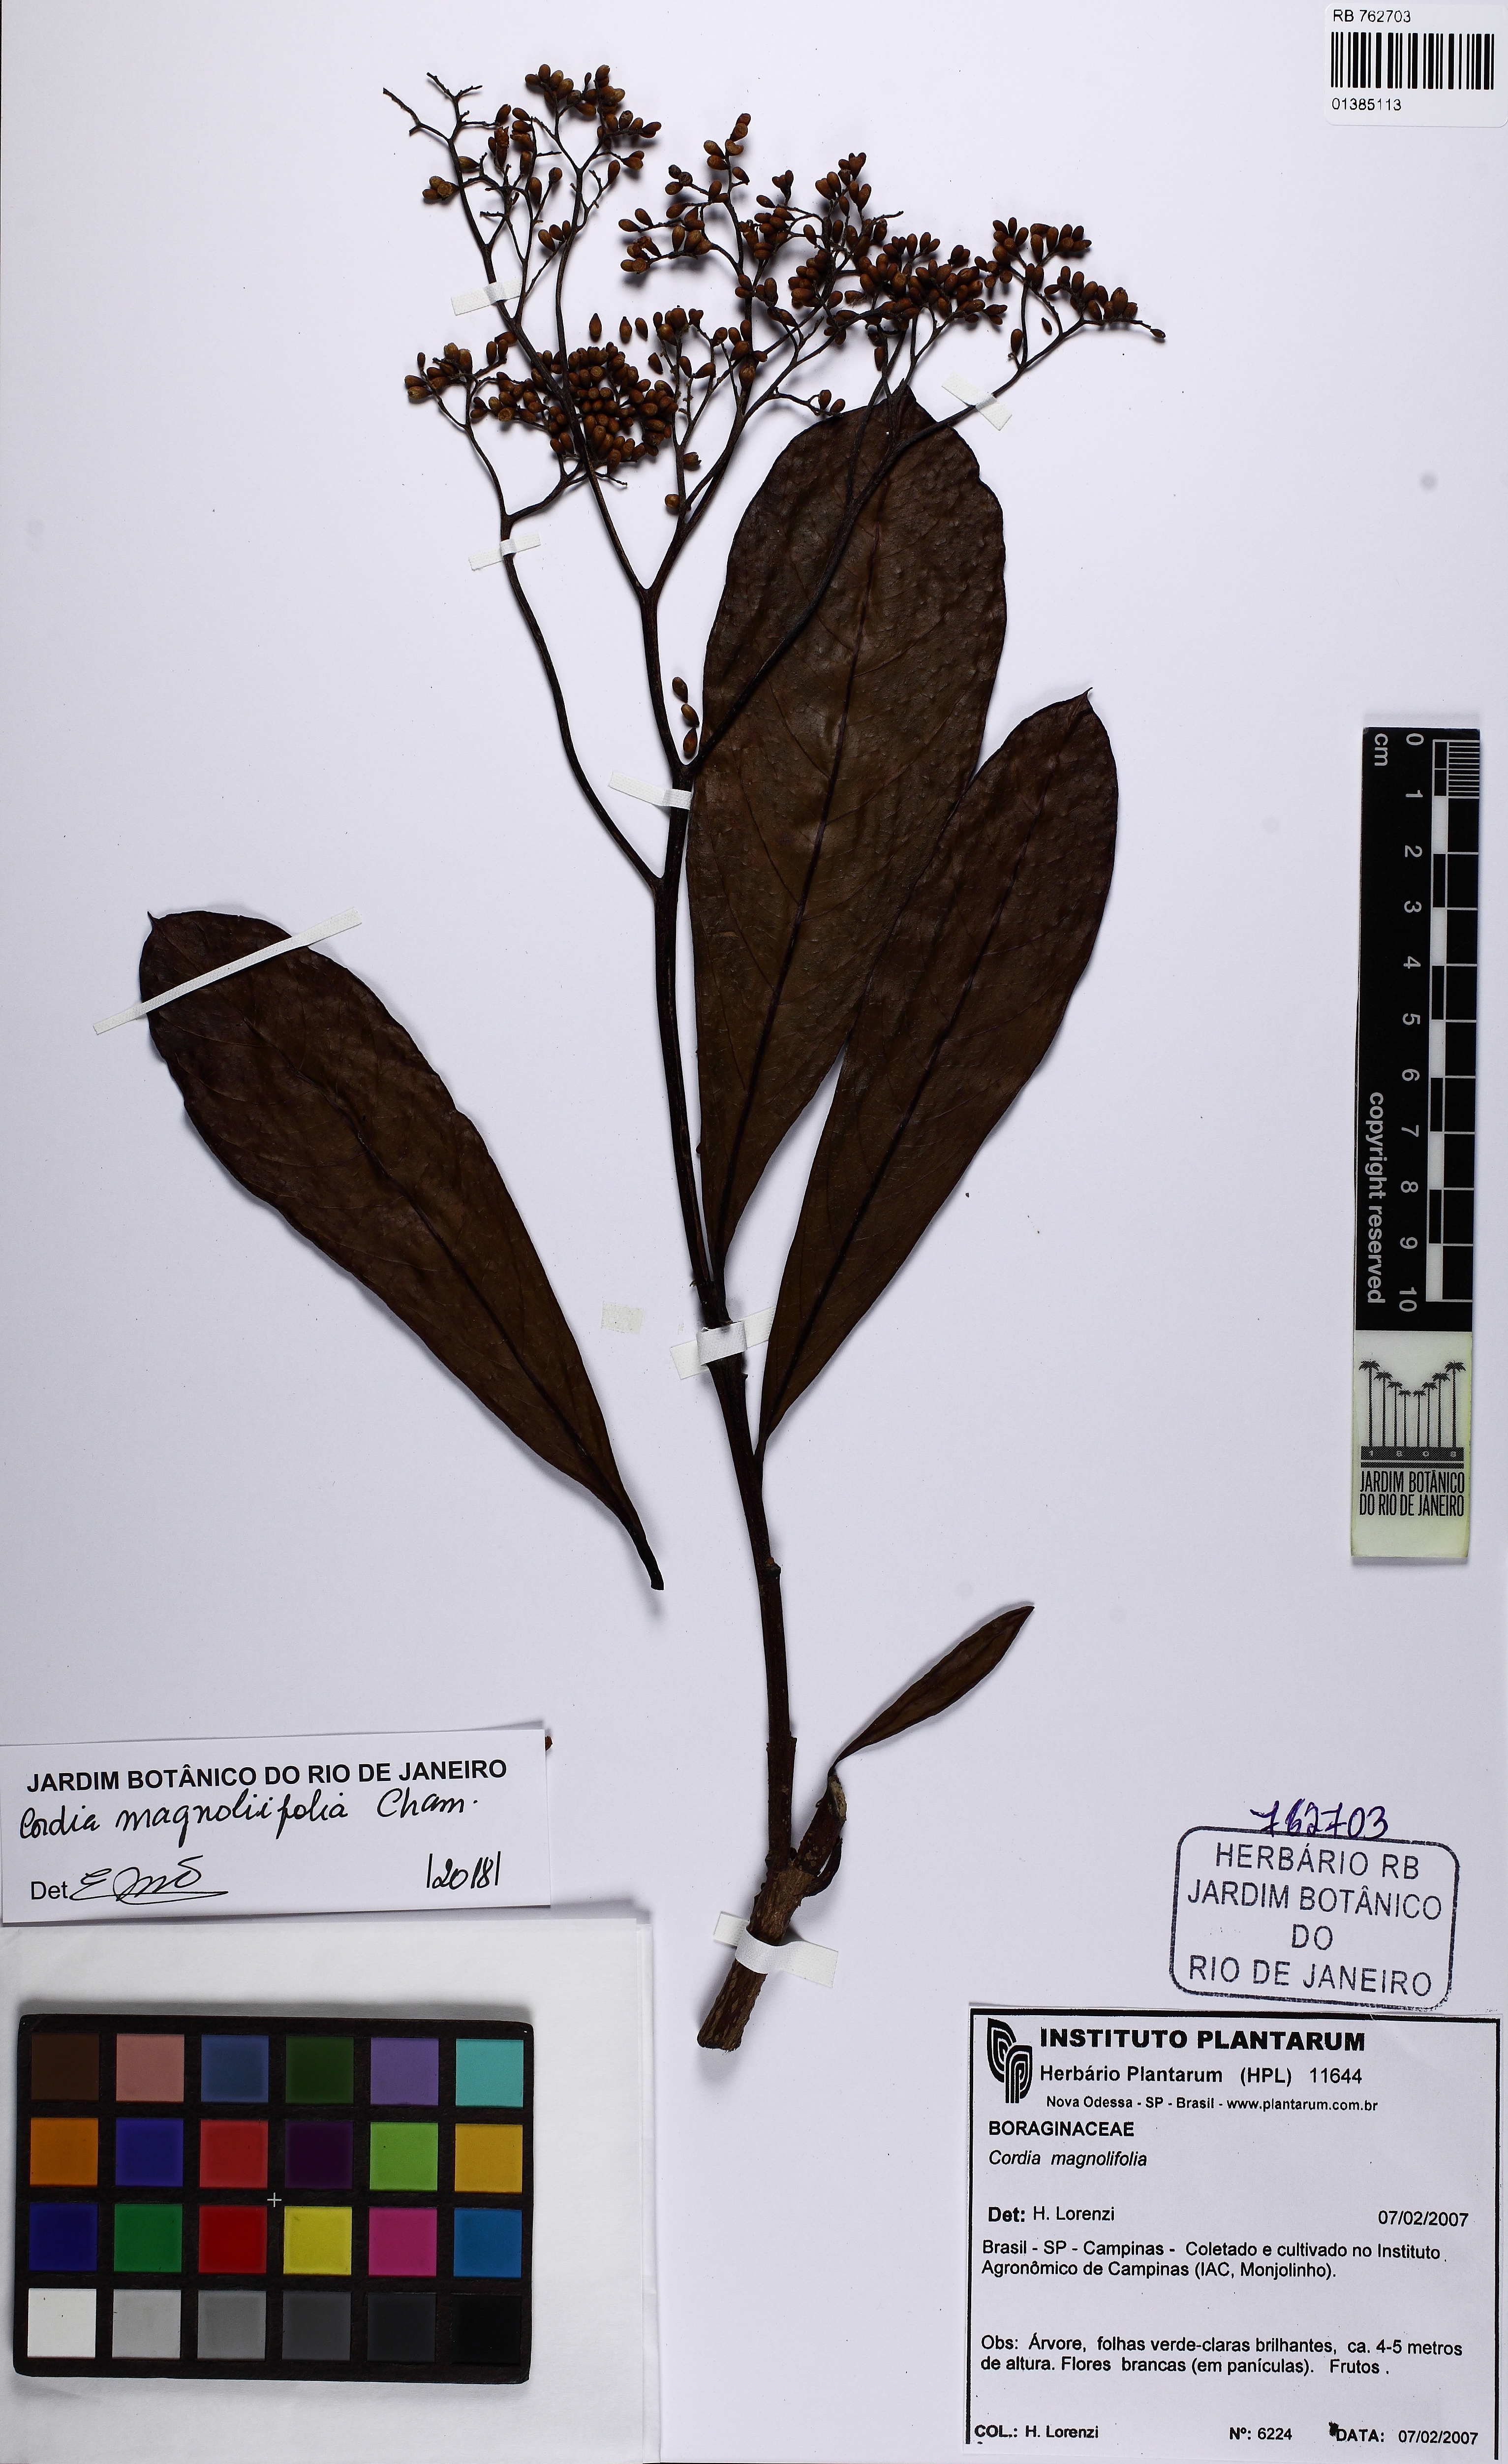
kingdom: Plantae
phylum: Tracheophyta
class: Magnoliopsida
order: Boraginales
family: Cordiaceae
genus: Cordia
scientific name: Cordia magnoliifolia
